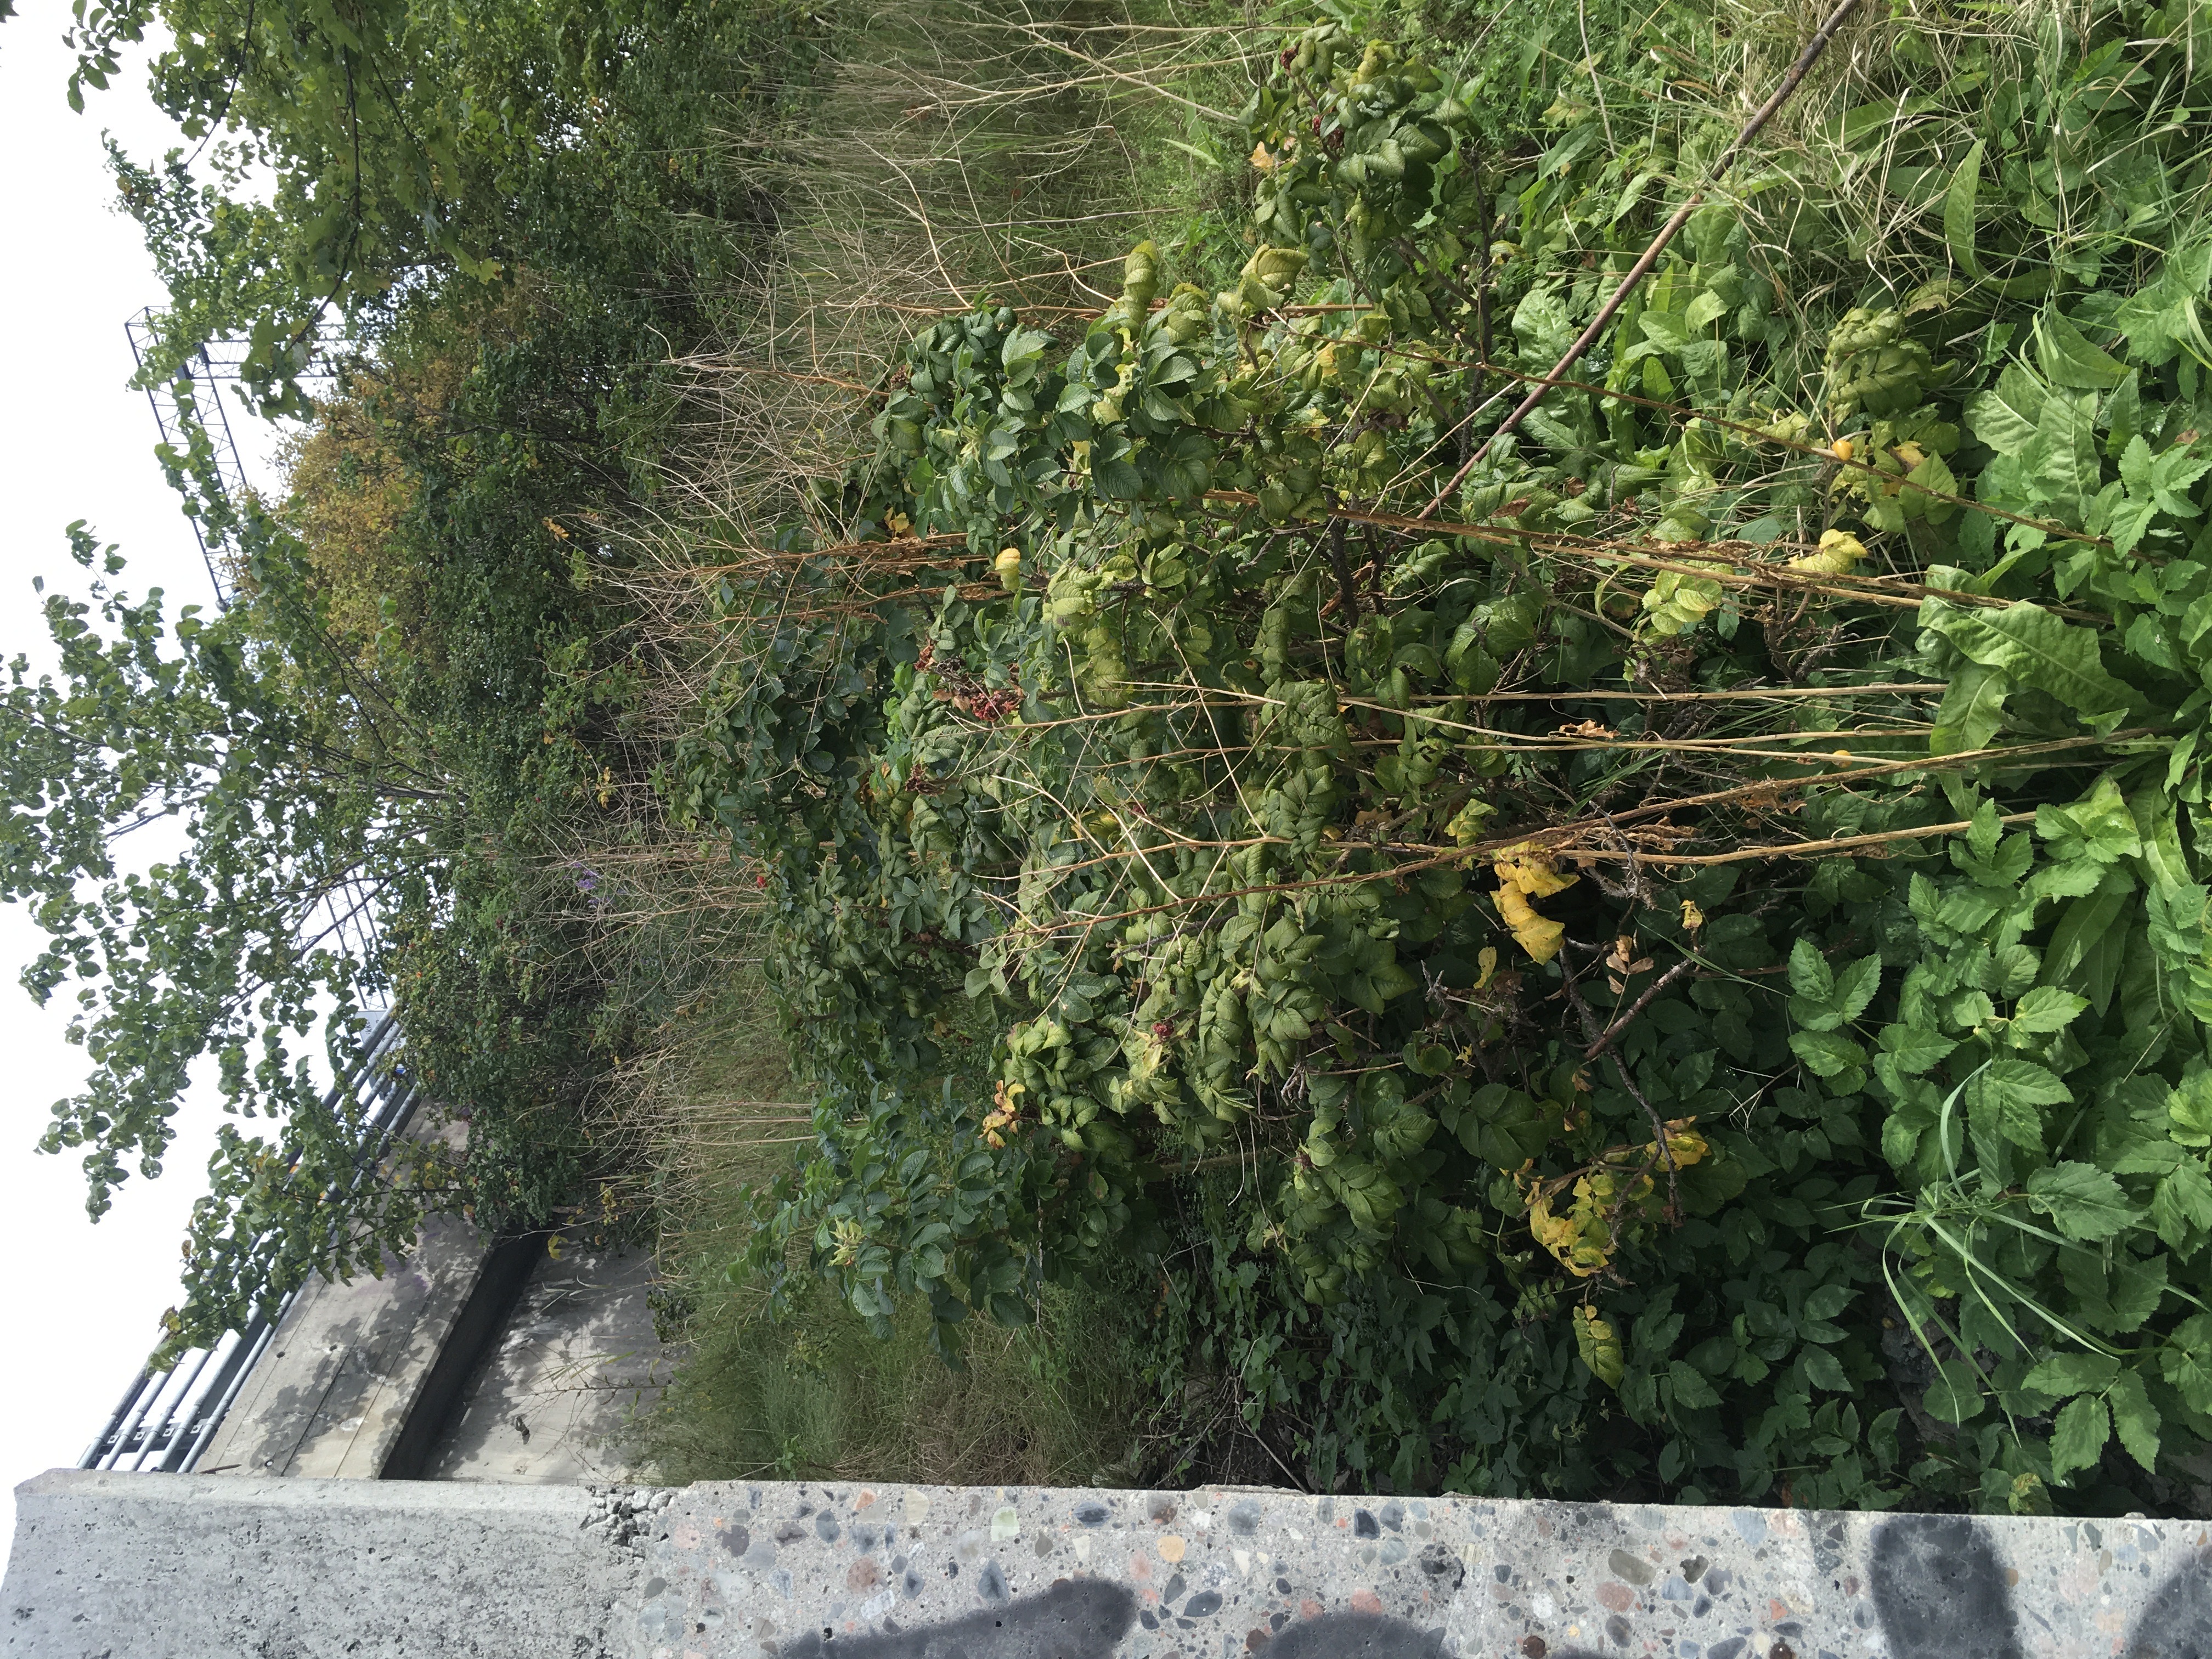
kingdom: Plantae
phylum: Tracheophyta
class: Magnoliopsida
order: Rosales
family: Rosaceae
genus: Rosa
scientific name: Rosa rugosa
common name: rynkerose
